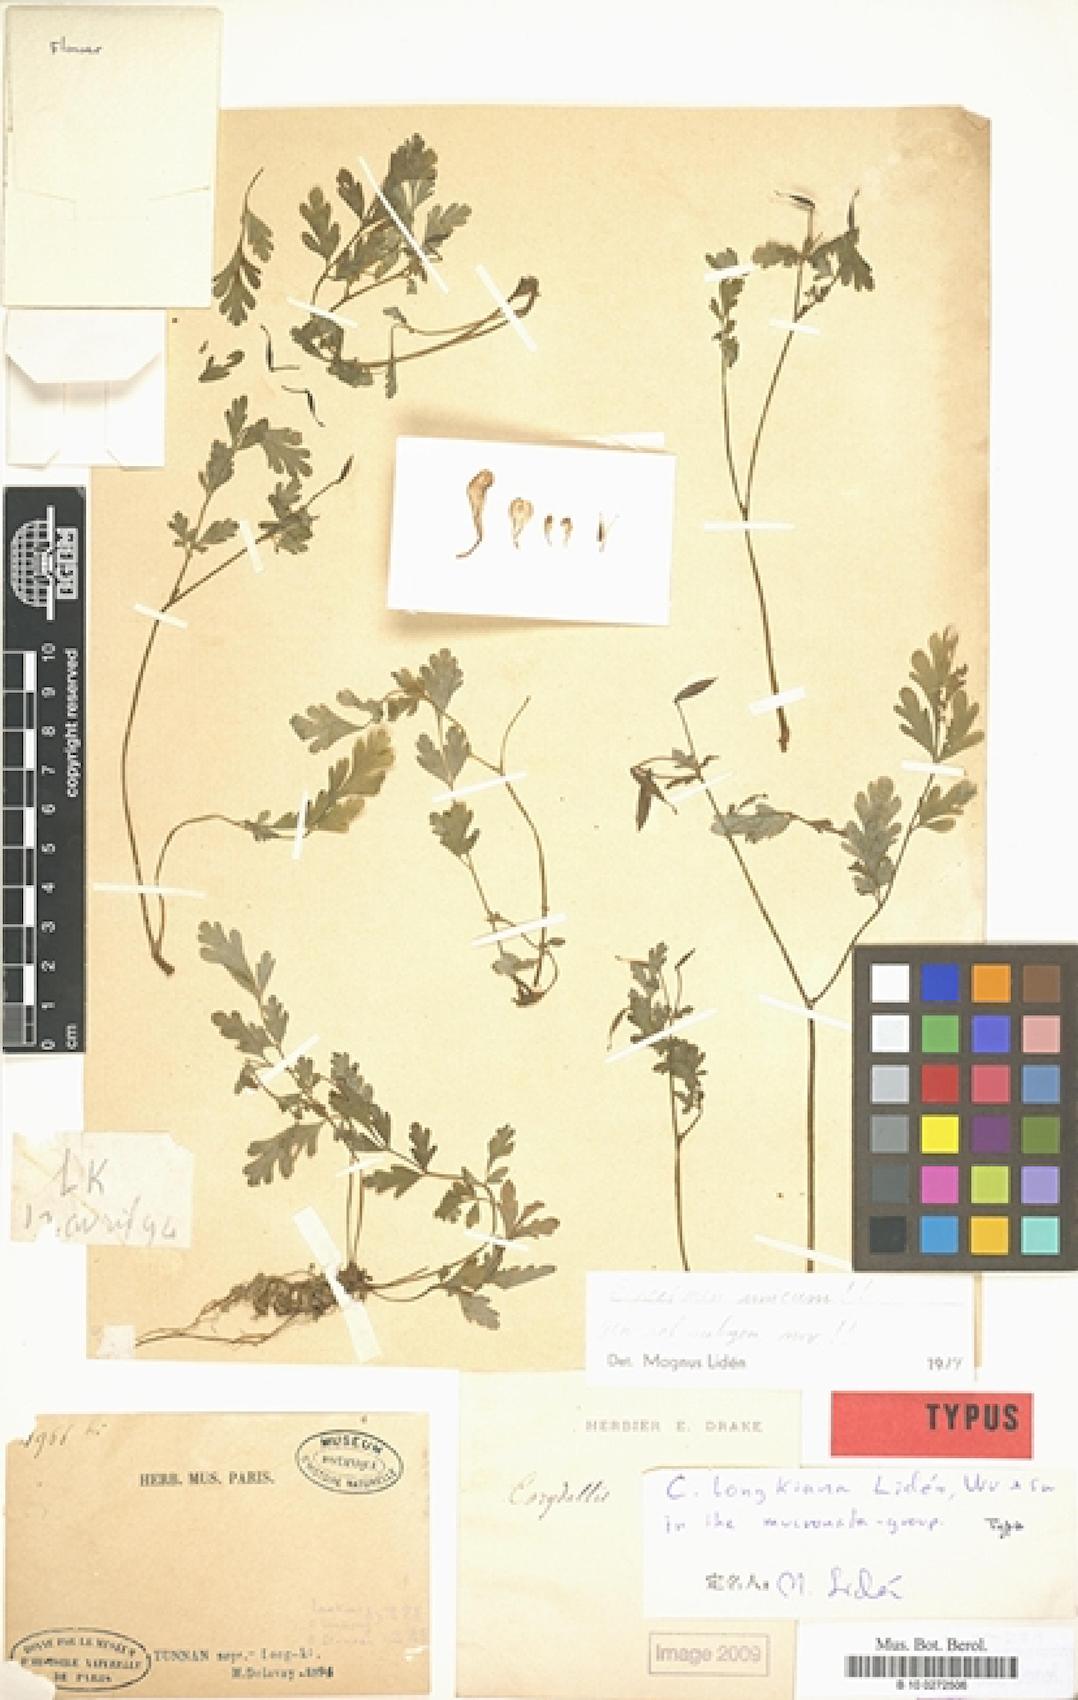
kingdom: Plantae
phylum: Tracheophyta
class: Magnoliopsida
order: Ranunculales
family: Papaveraceae
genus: Corydalis
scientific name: Corydalis longkiensis
